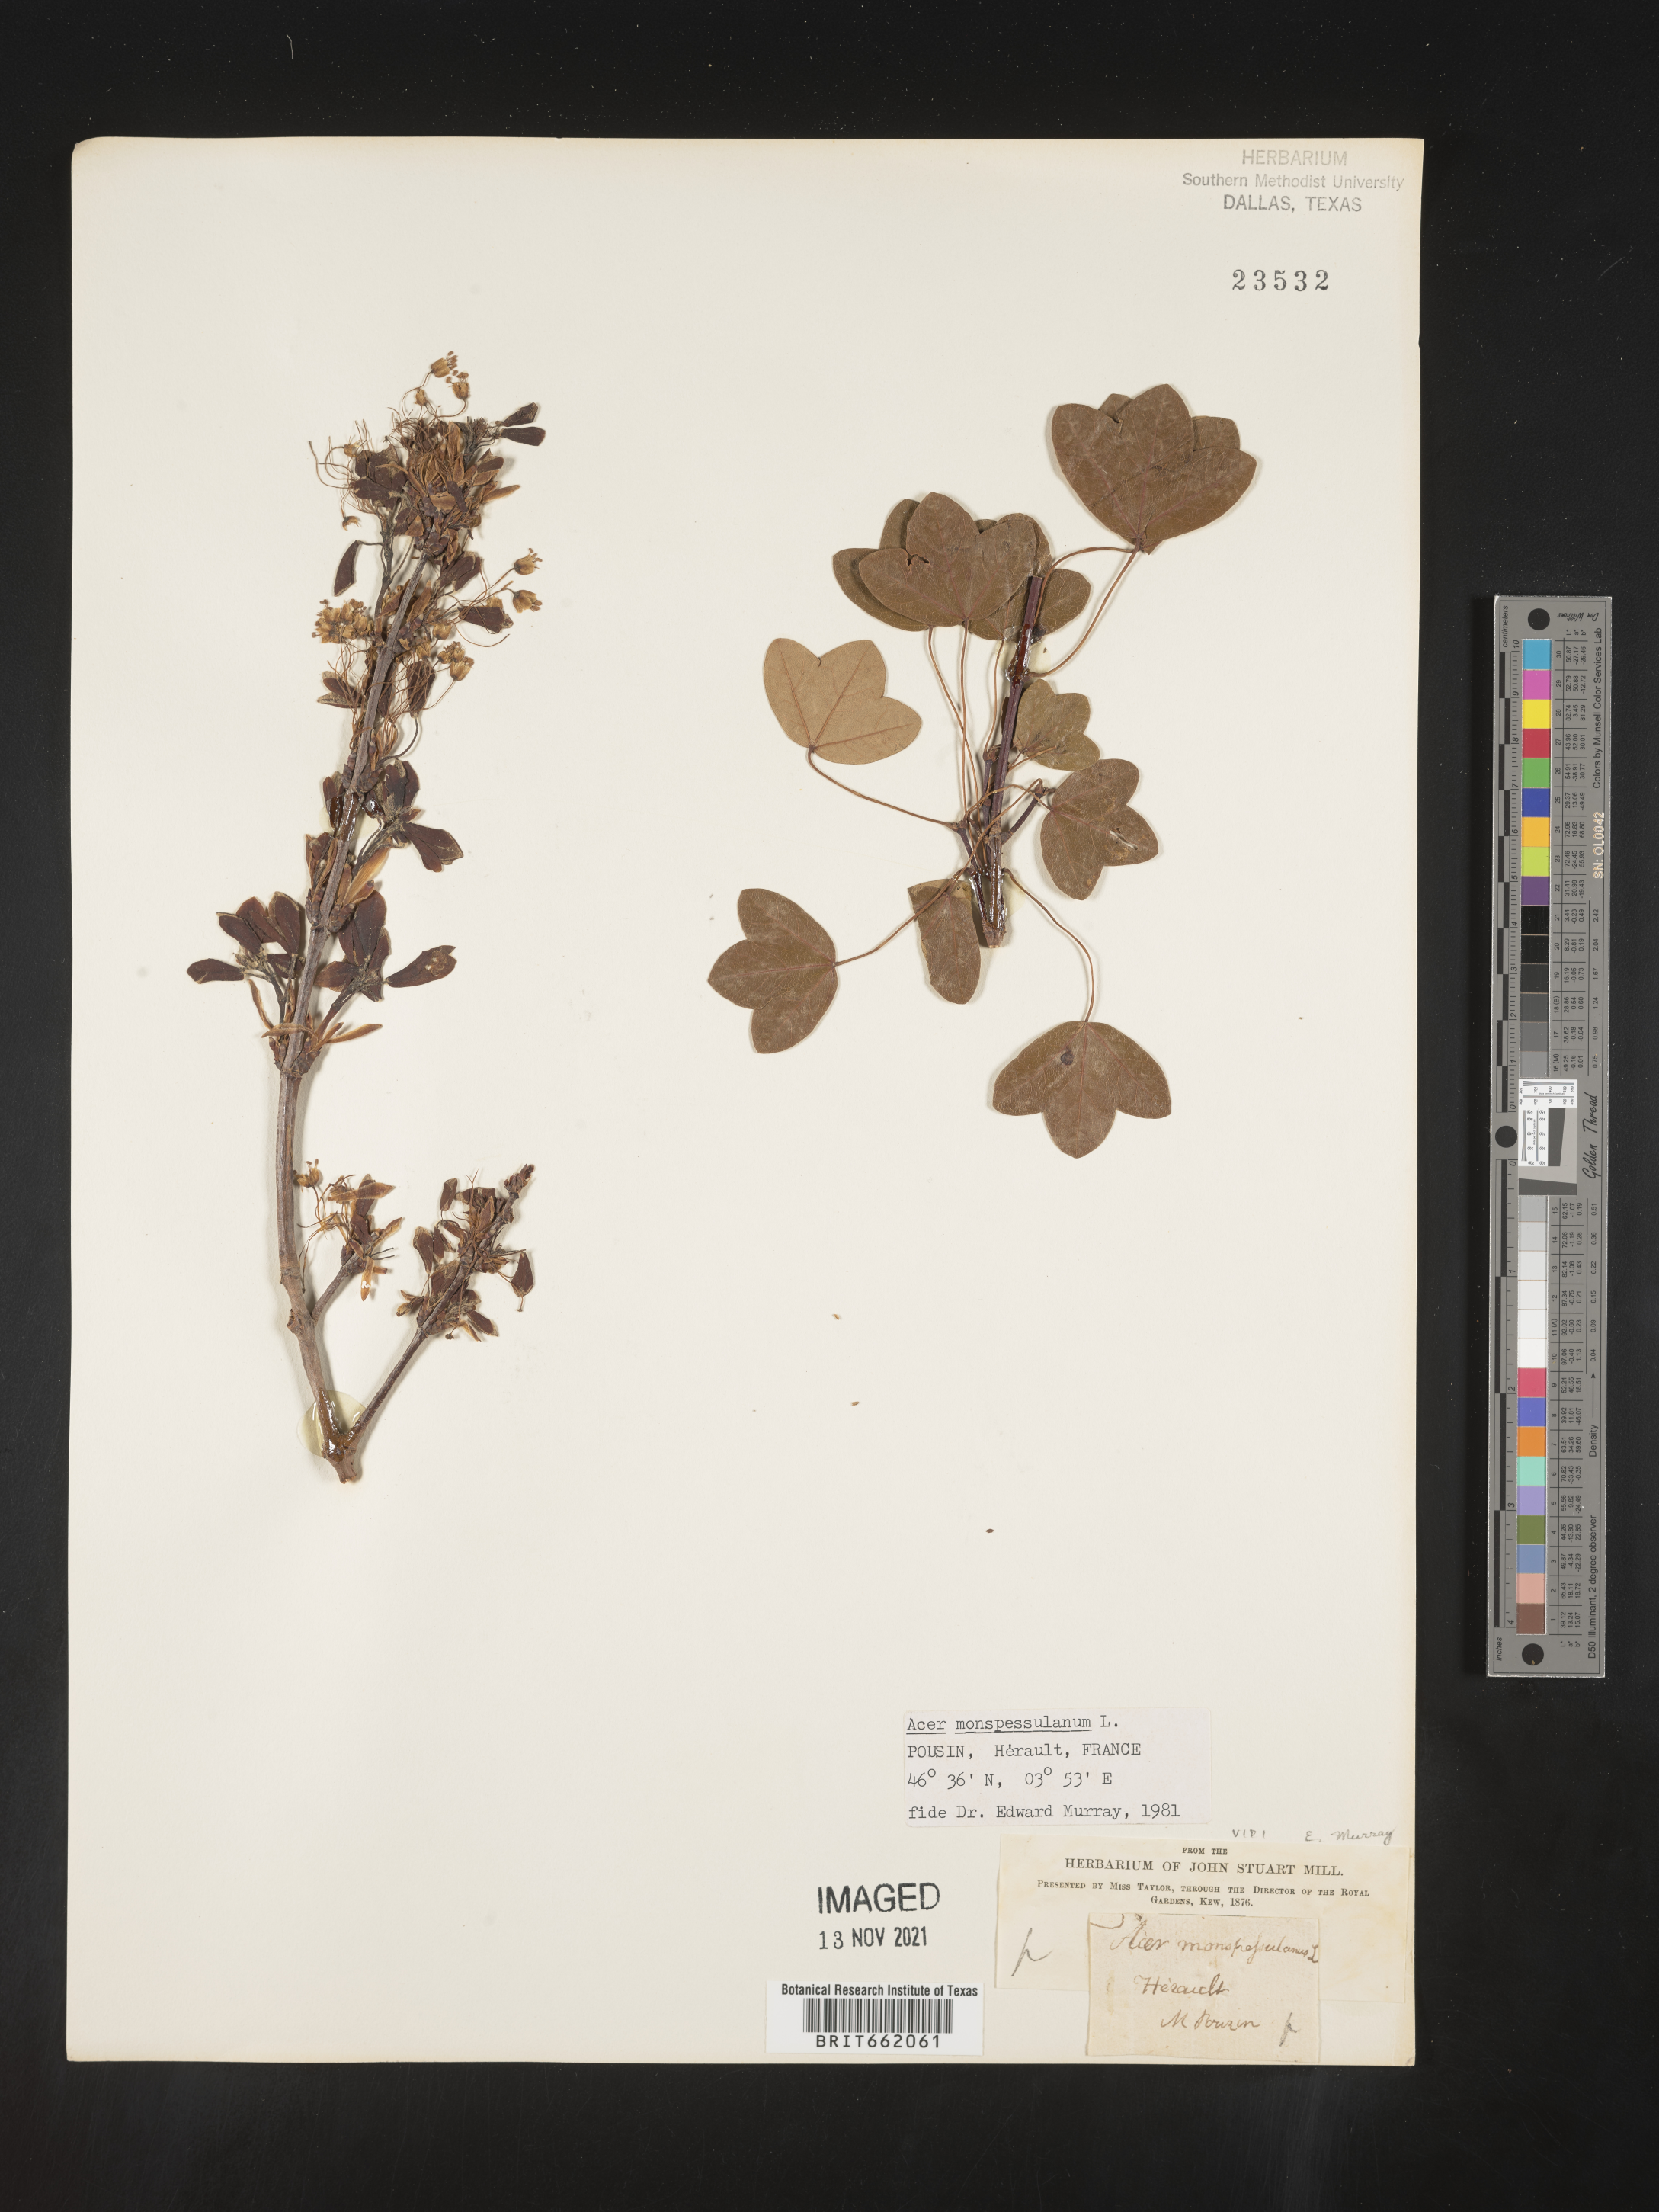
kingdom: Plantae
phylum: Tracheophyta
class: Magnoliopsida
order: Sapindales
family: Sapindaceae
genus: Acer
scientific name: Acer
